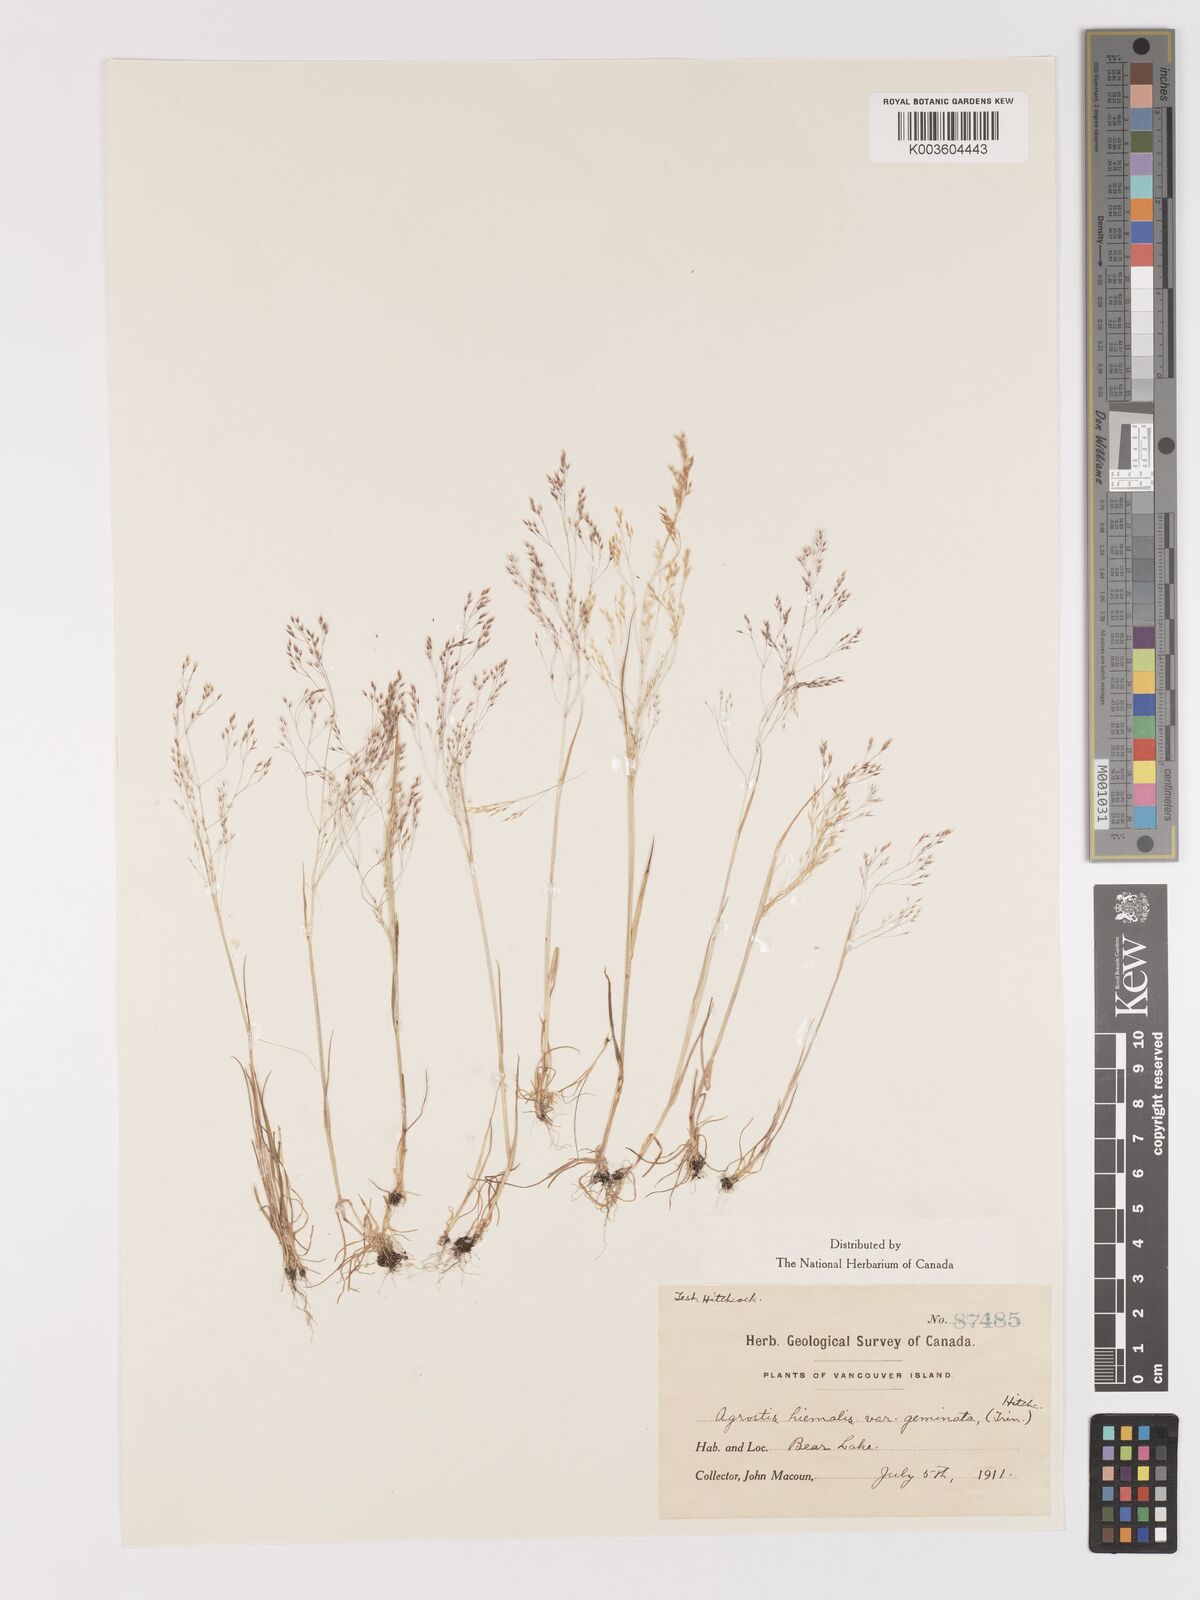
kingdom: Plantae
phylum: Tracheophyta
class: Liliopsida
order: Poales
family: Poaceae
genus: Agrostis
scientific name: Agrostis hyemalis
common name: Small bent
